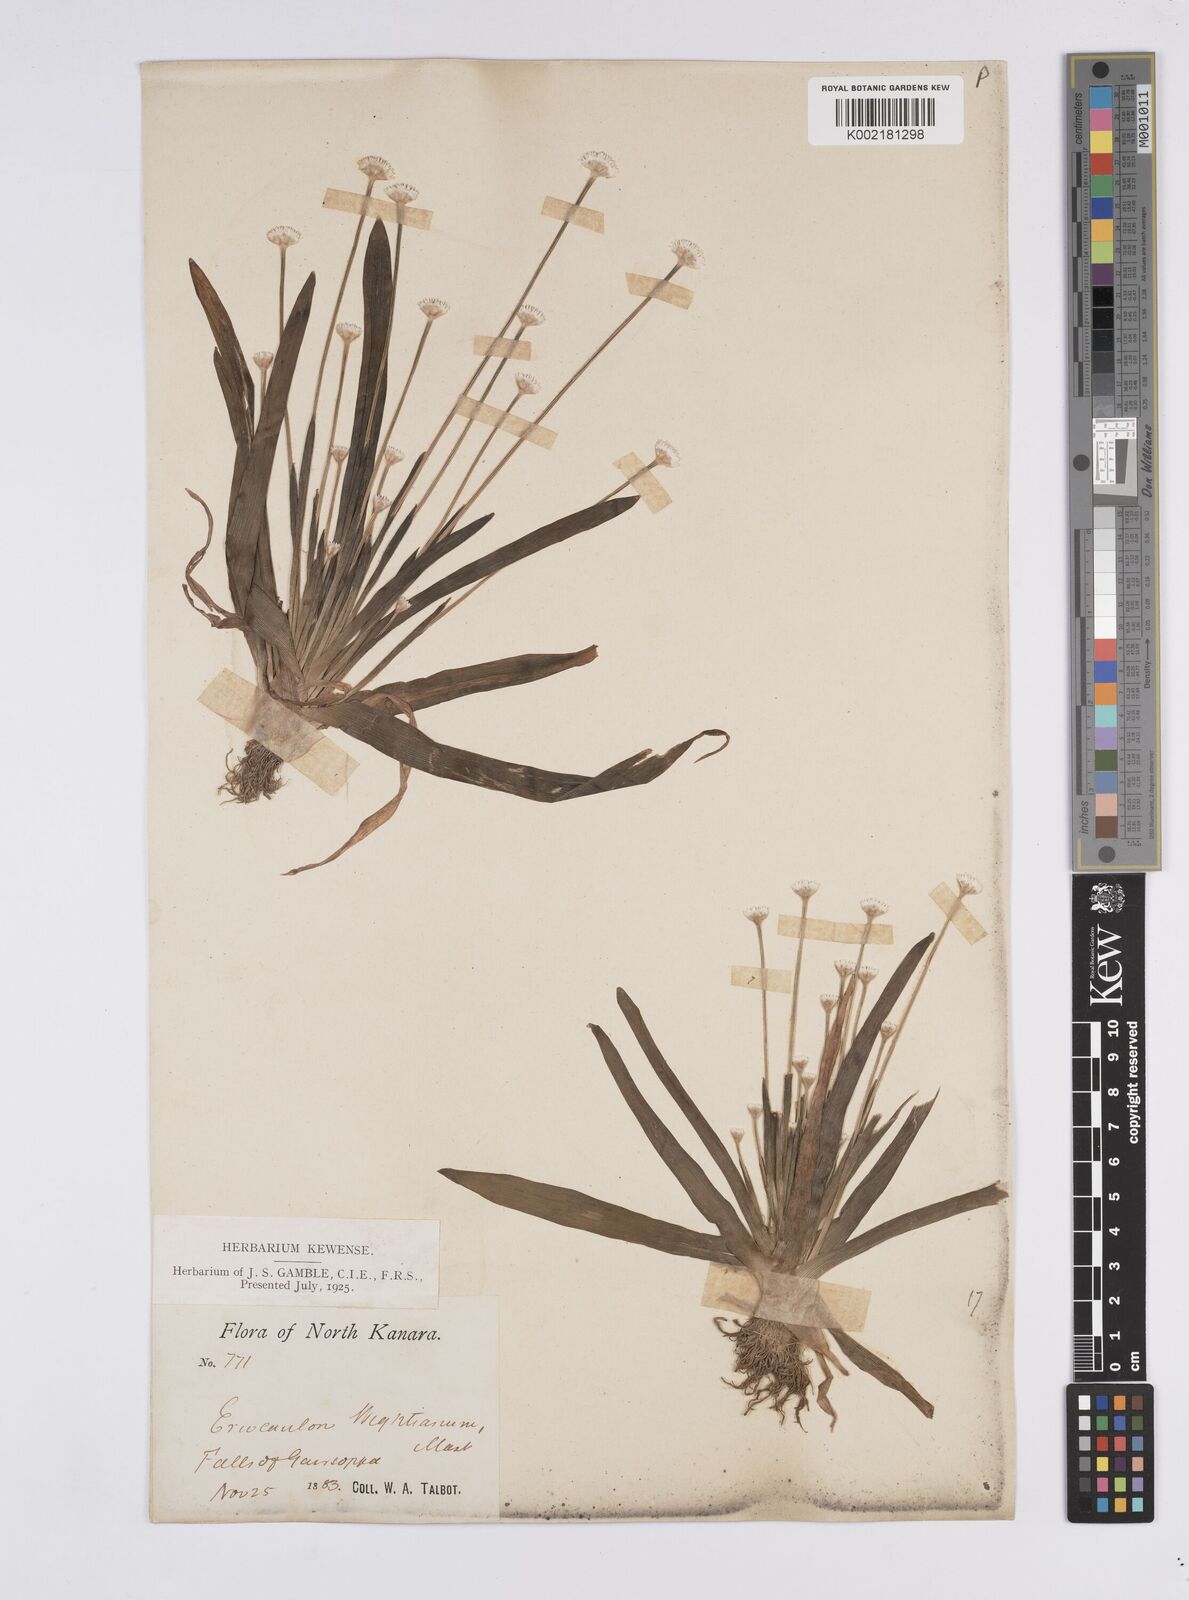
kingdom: Plantae
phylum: Tracheophyta
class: Liliopsida
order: Poales
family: Eriocaulaceae
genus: Eriocaulon
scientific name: Eriocaulon robustobrownianum
